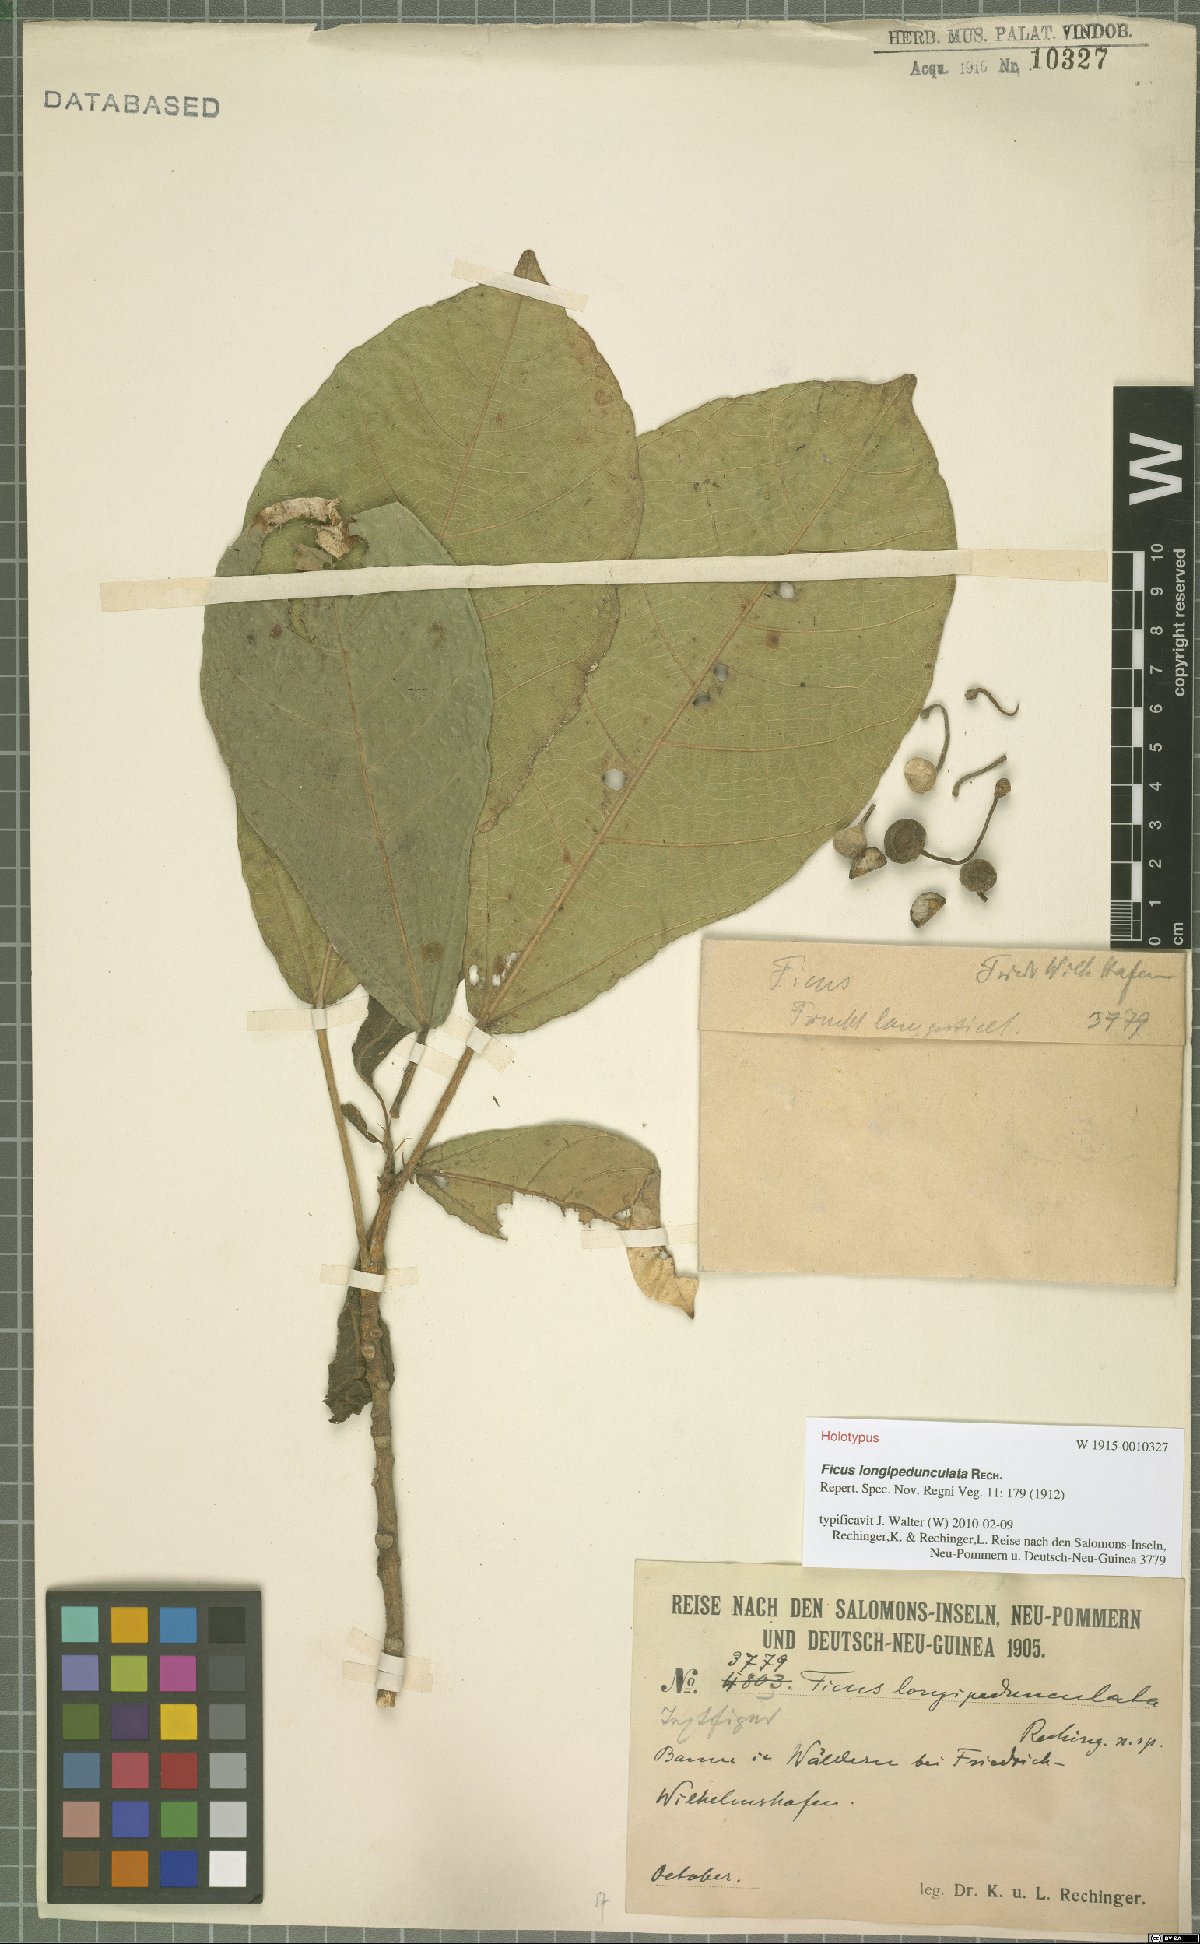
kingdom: Plantae
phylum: Tracheophyta
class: Magnoliopsida
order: Rosales
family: Moraceae
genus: Ficus
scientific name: Ficus copiosa
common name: Plentiful fig
